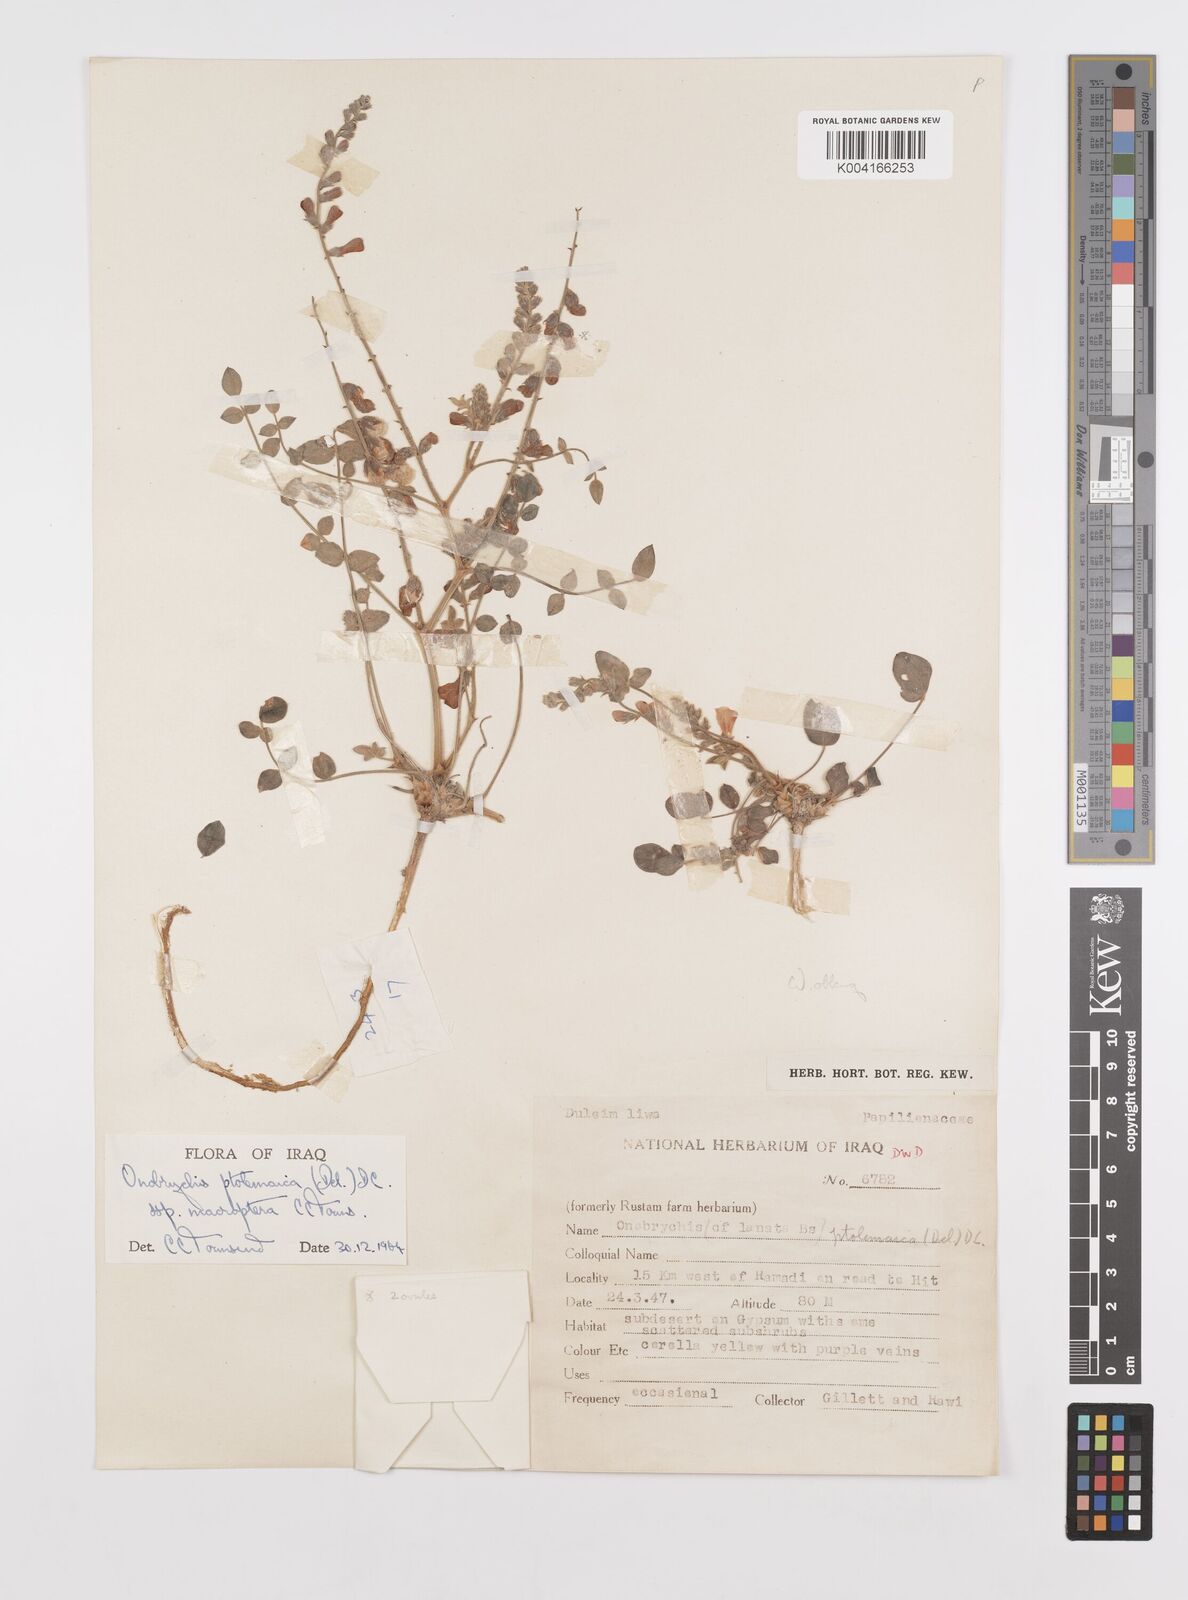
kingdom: Plantae
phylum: Tracheophyta
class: Magnoliopsida
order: Fabales
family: Fabaceae
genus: Onobrychis
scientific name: Onobrychis ptolemaica
